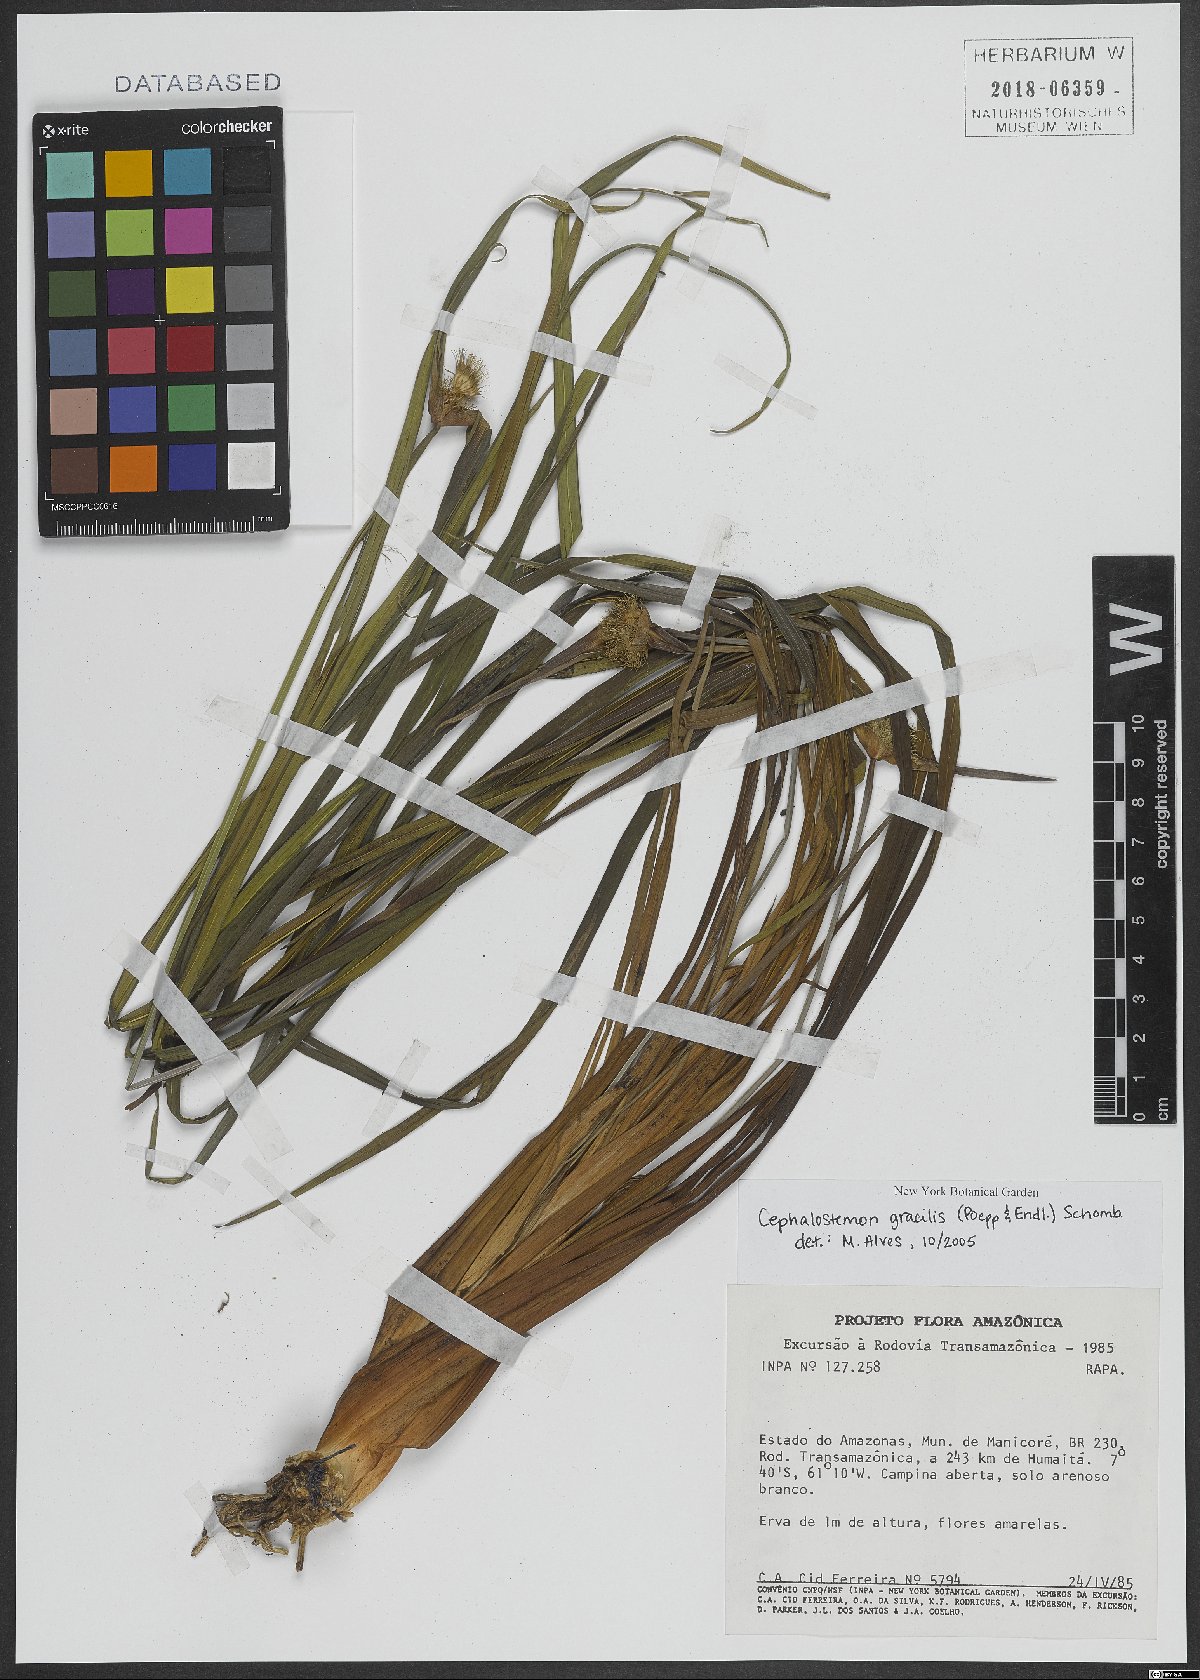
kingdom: Plantae
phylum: Tracheophyta
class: Liliopsida
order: Poales
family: Rapateaceae
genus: Cephalostemon
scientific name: Cephalostemon gracilis
